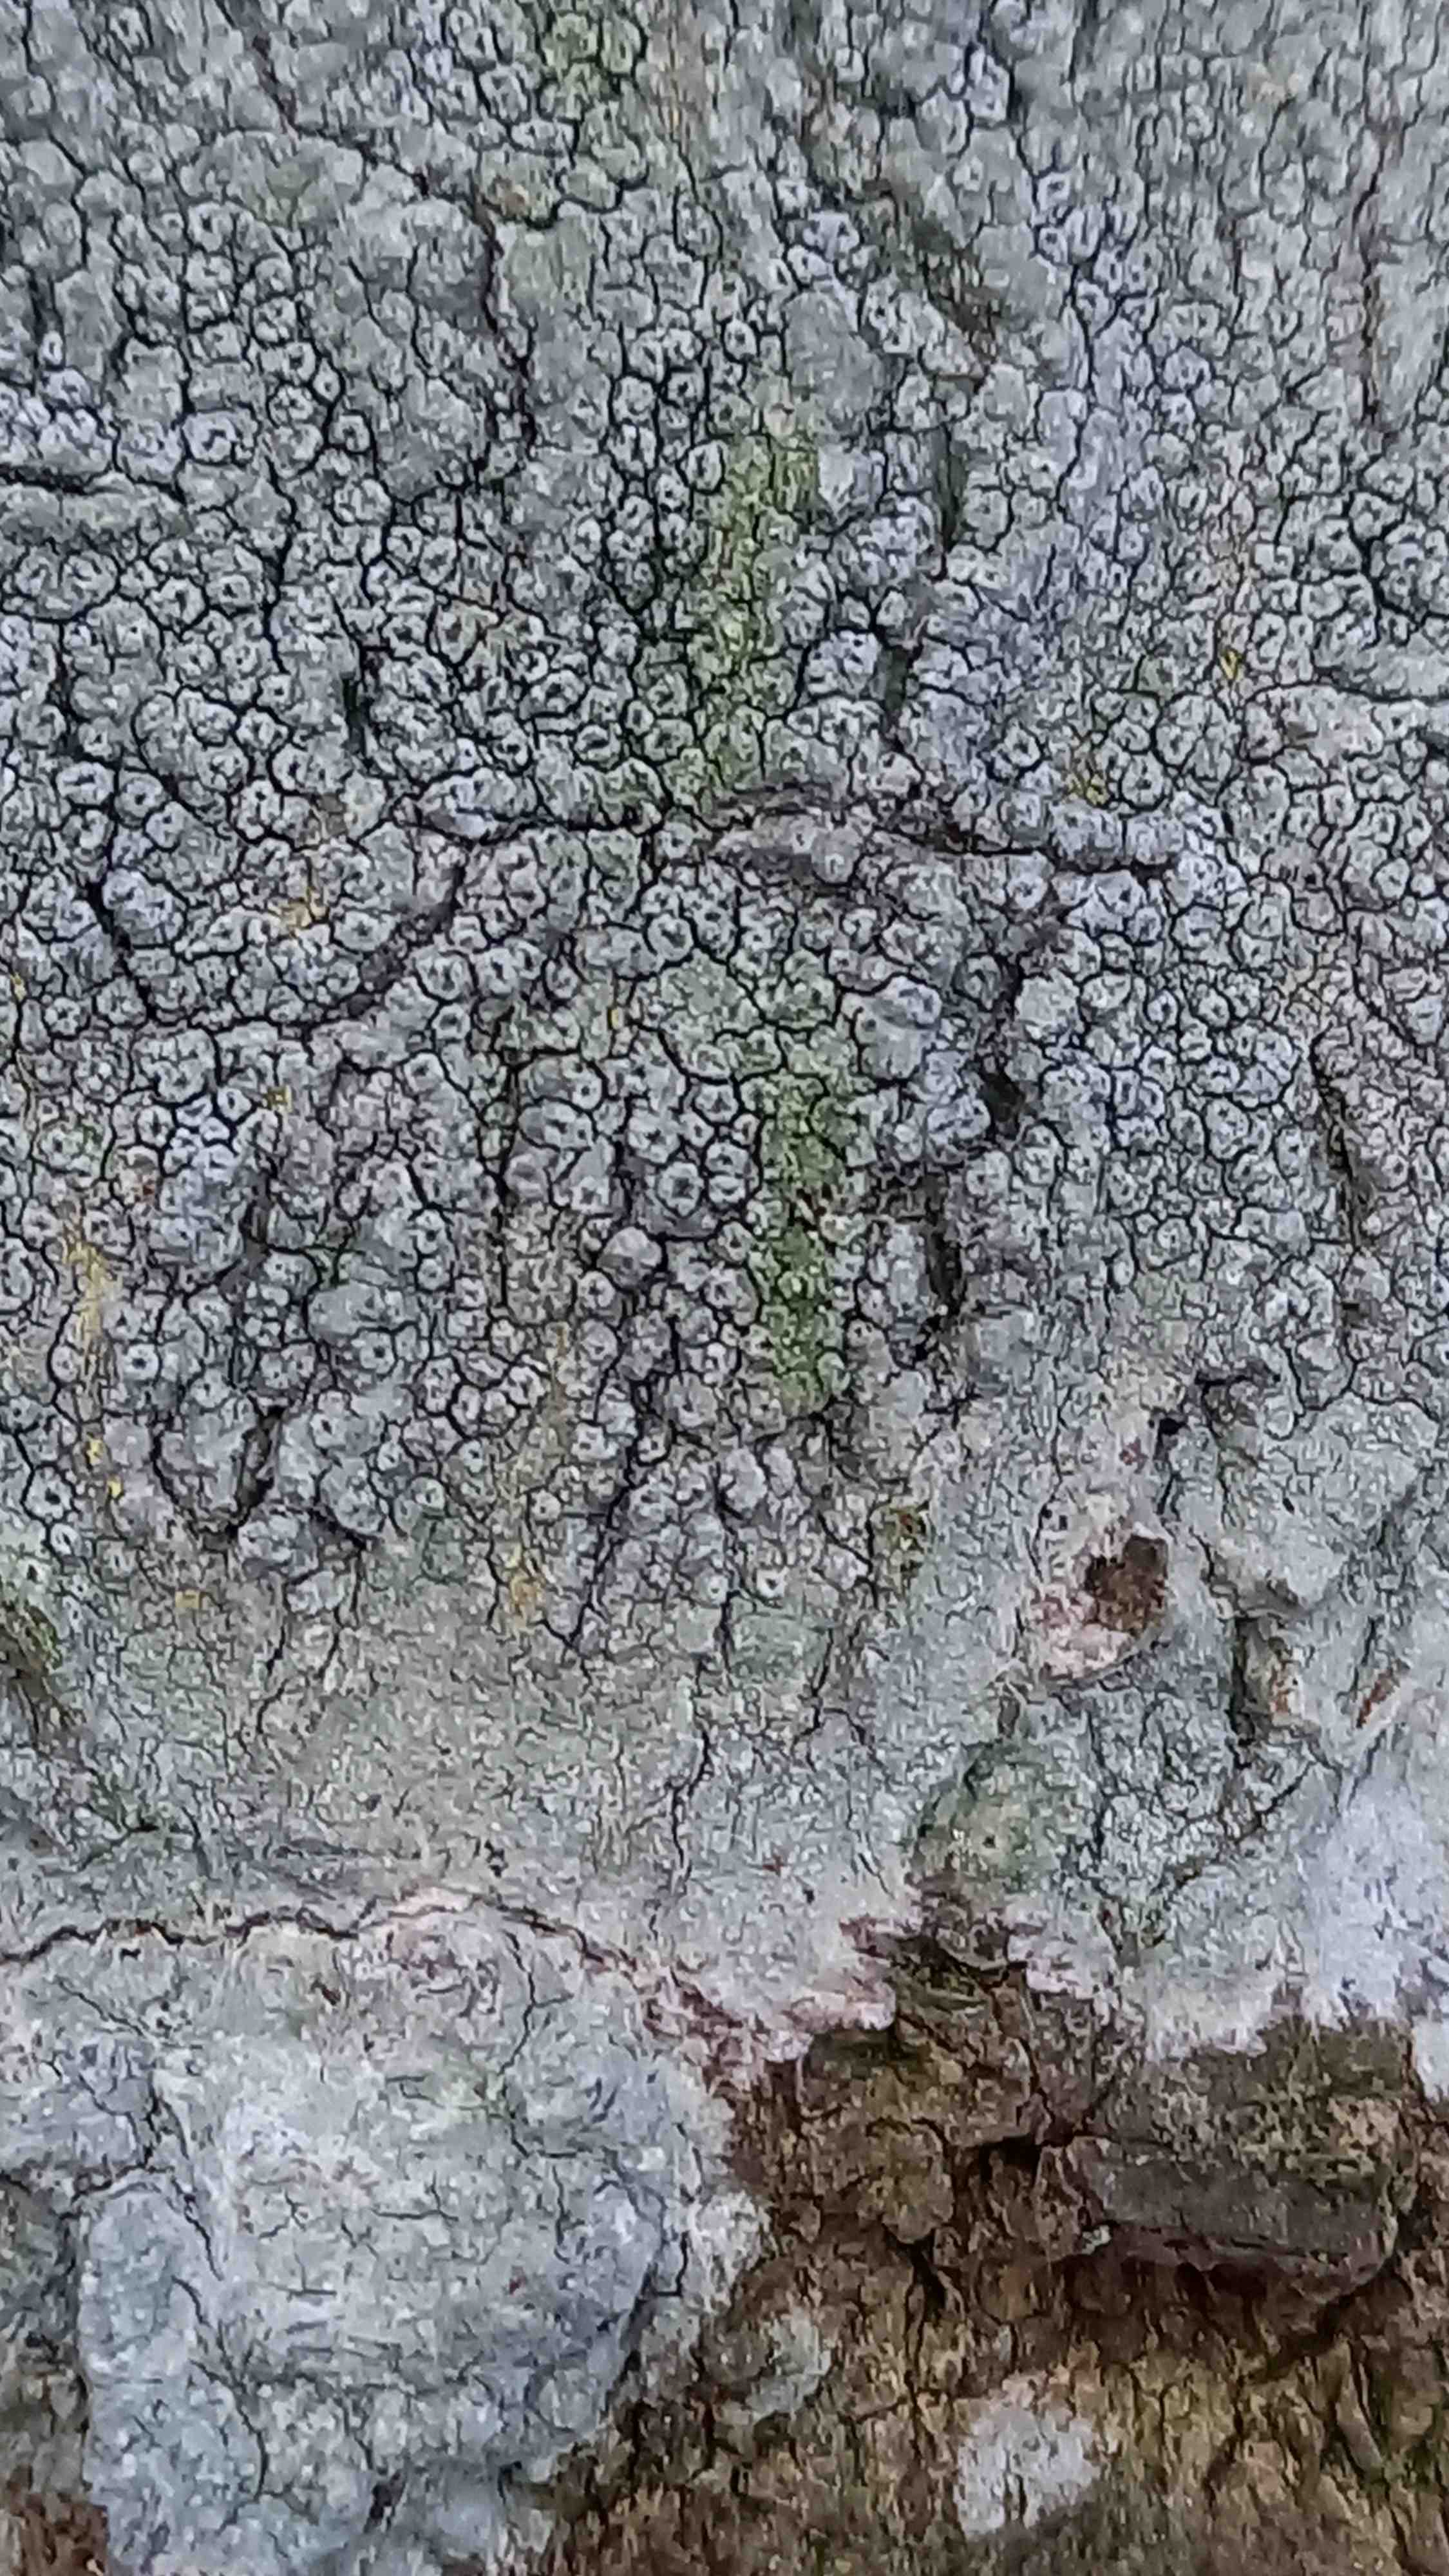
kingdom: Fungi
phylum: Ascomycota
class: Lecanoromycetes
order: Pertusariales
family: Pertusariaceae
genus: Pertusaria
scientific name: Pertusaria hymenea
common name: åben prikvortelav
